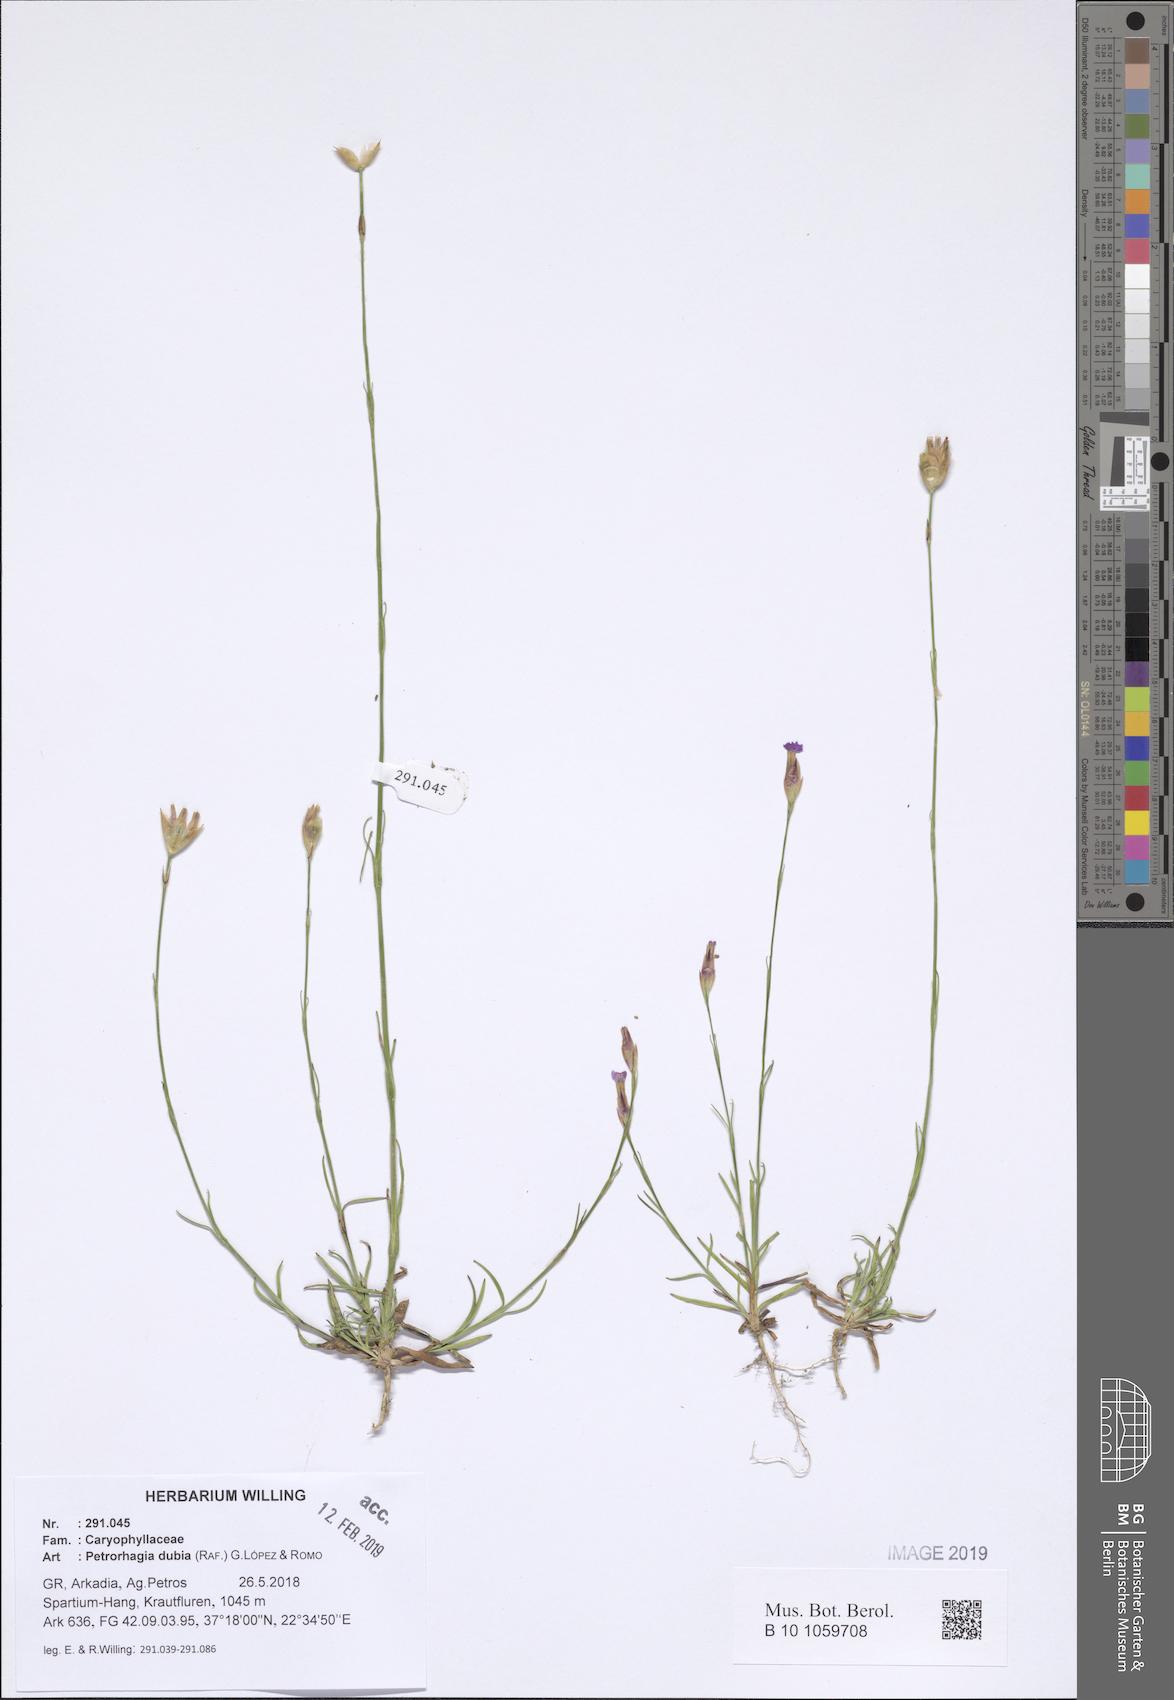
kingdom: Plantae
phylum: Tracheophyta
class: Magnoliopsida
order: Caryophyllales
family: Caryophyllaceae
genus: Petrorhagia
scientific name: Petrorhagia dubia
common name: Hairypink
